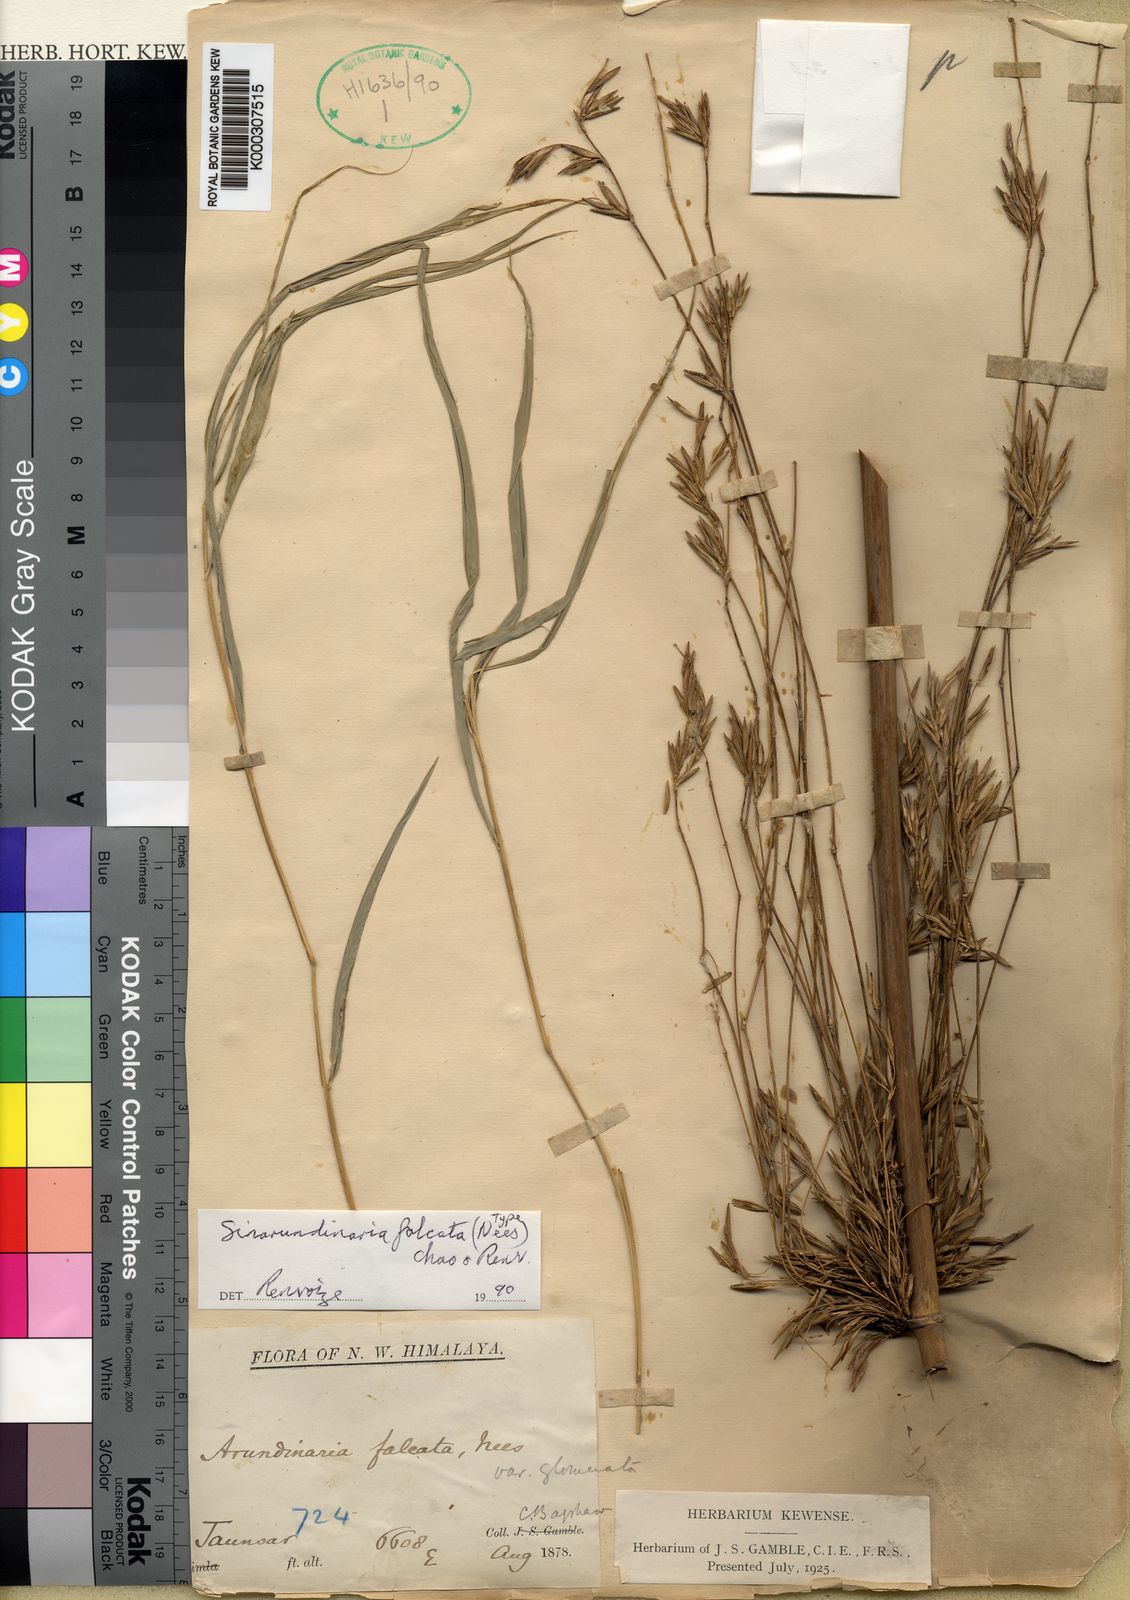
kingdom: Plantae
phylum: Tracheophyta
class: Liliopsida
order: Poales
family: Poaceae
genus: Drepanostachyum
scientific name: Drepanostachyum falcatum
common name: Himalayan bamboo
